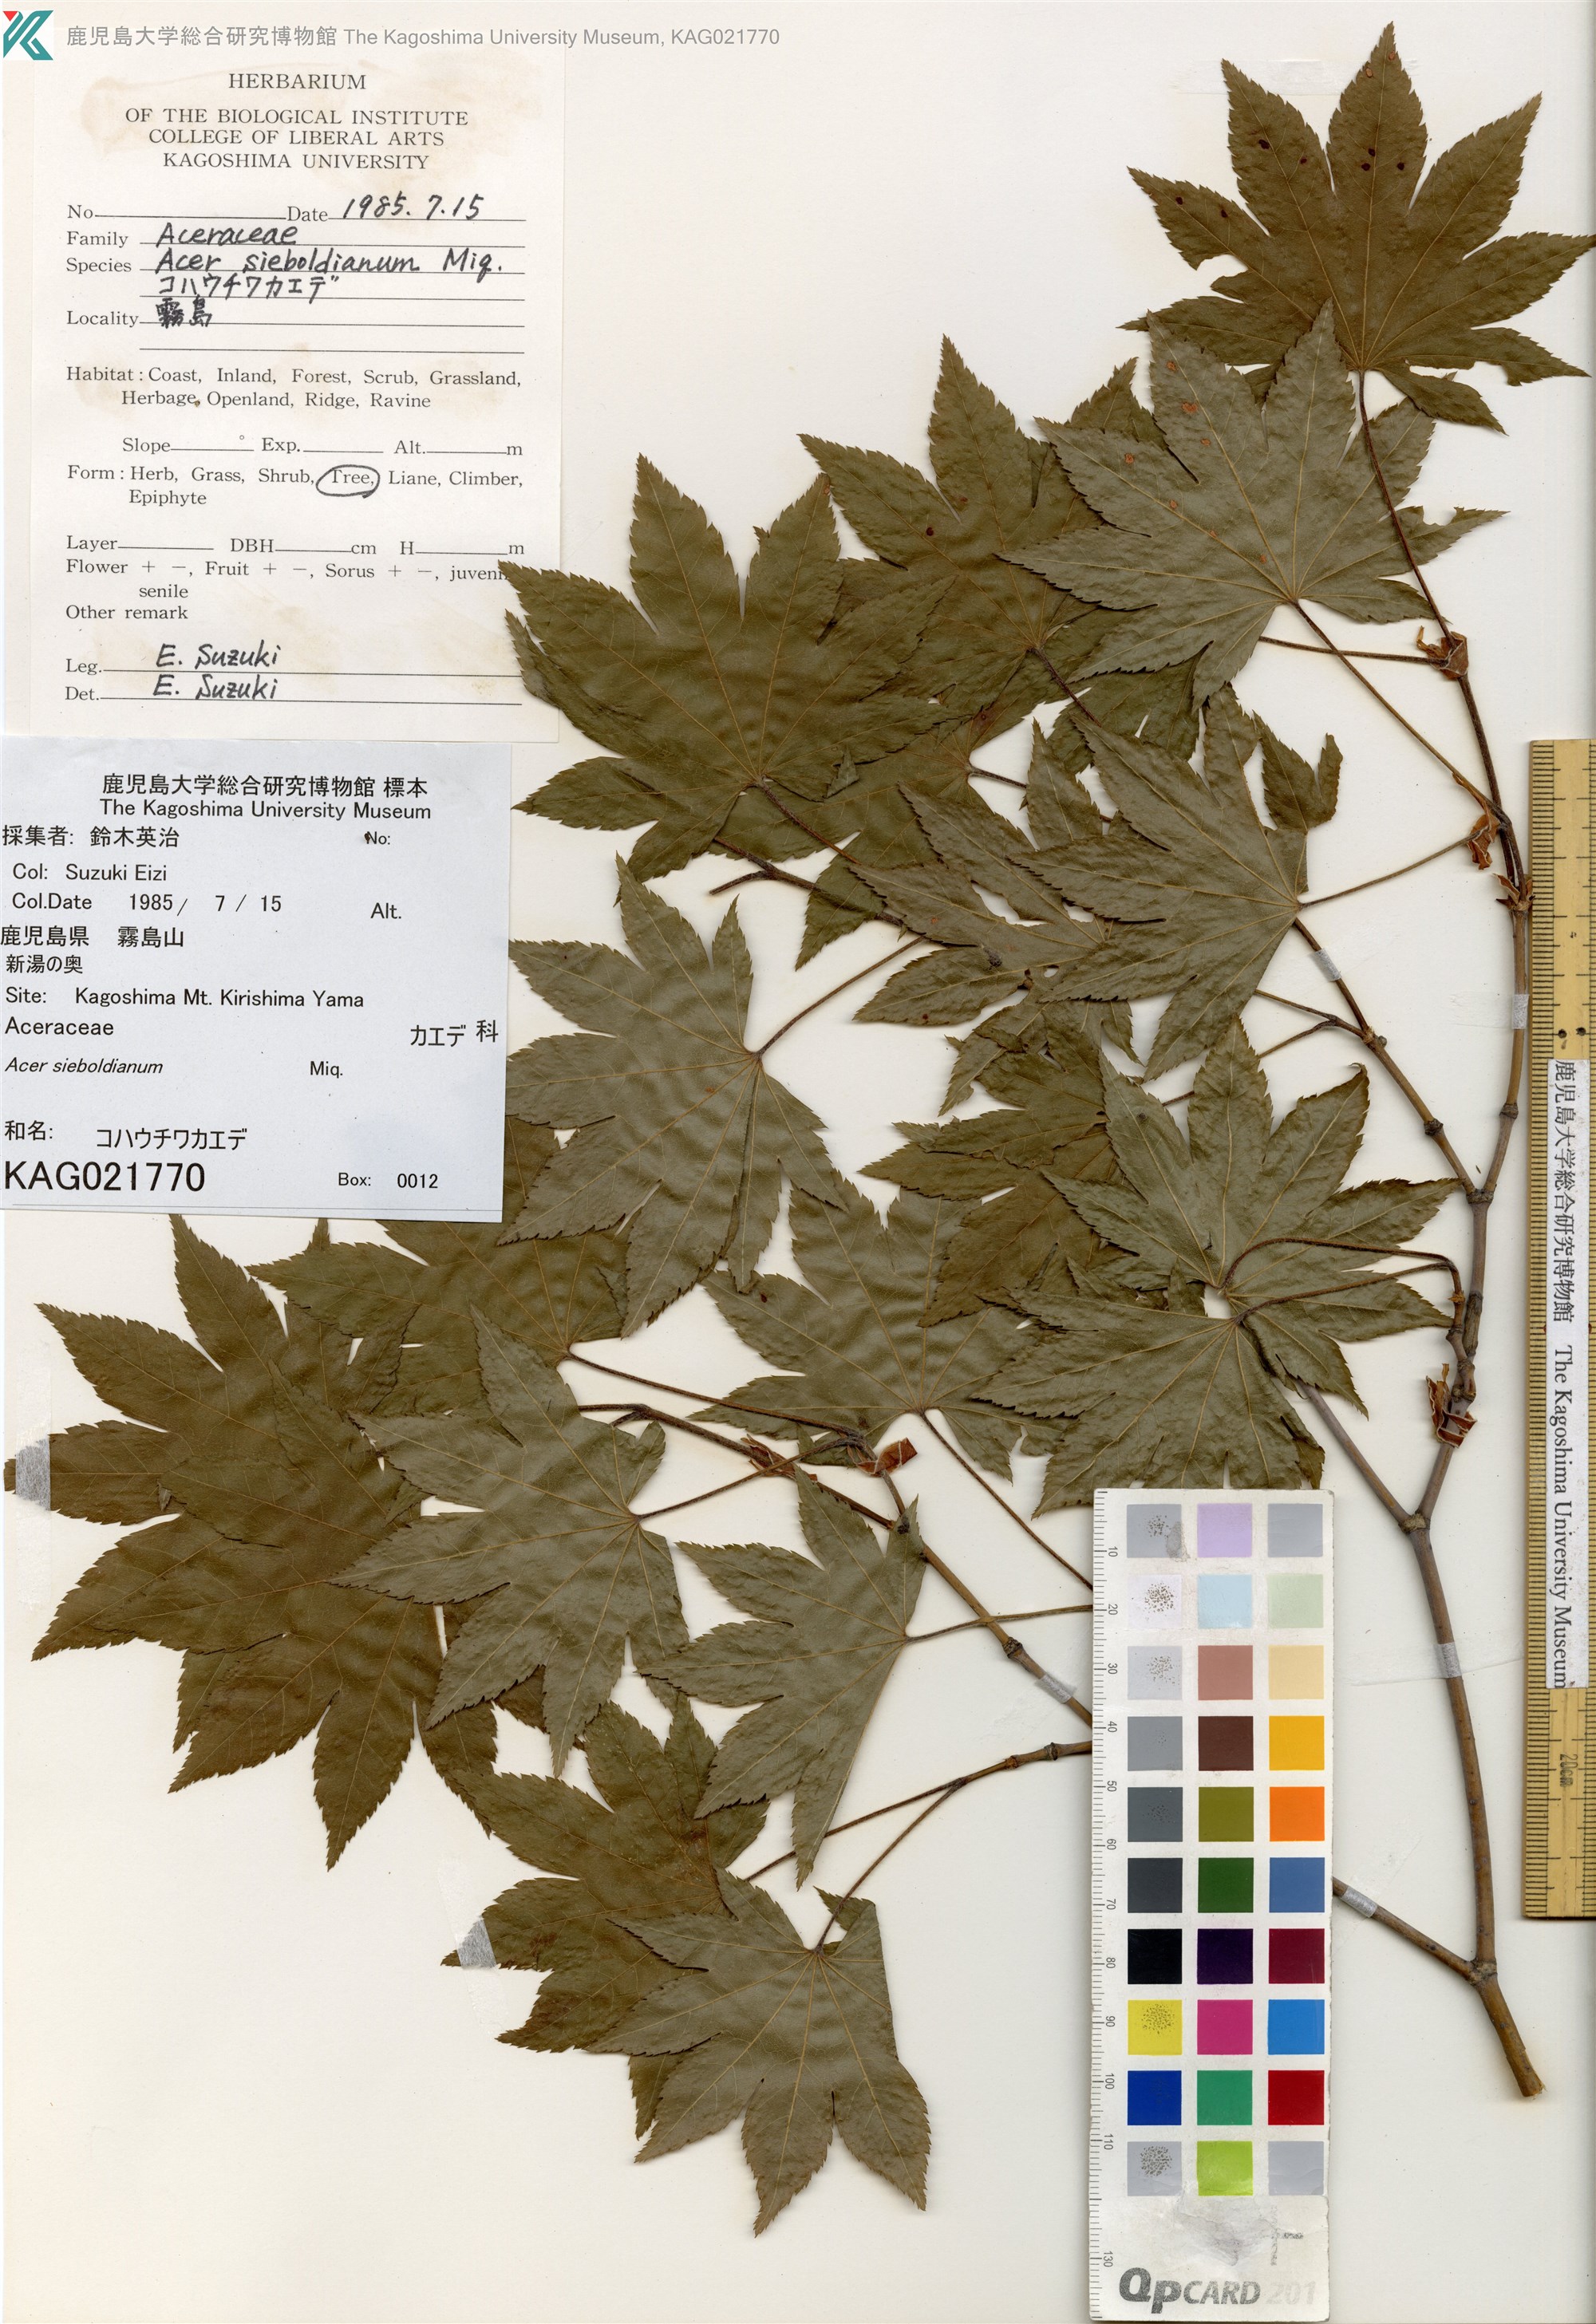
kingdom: Plantae
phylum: Tracheophyta
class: Magnoliopsida
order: Sapindales
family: Sapindaceae
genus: Acer
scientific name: Acer sieboldianum
